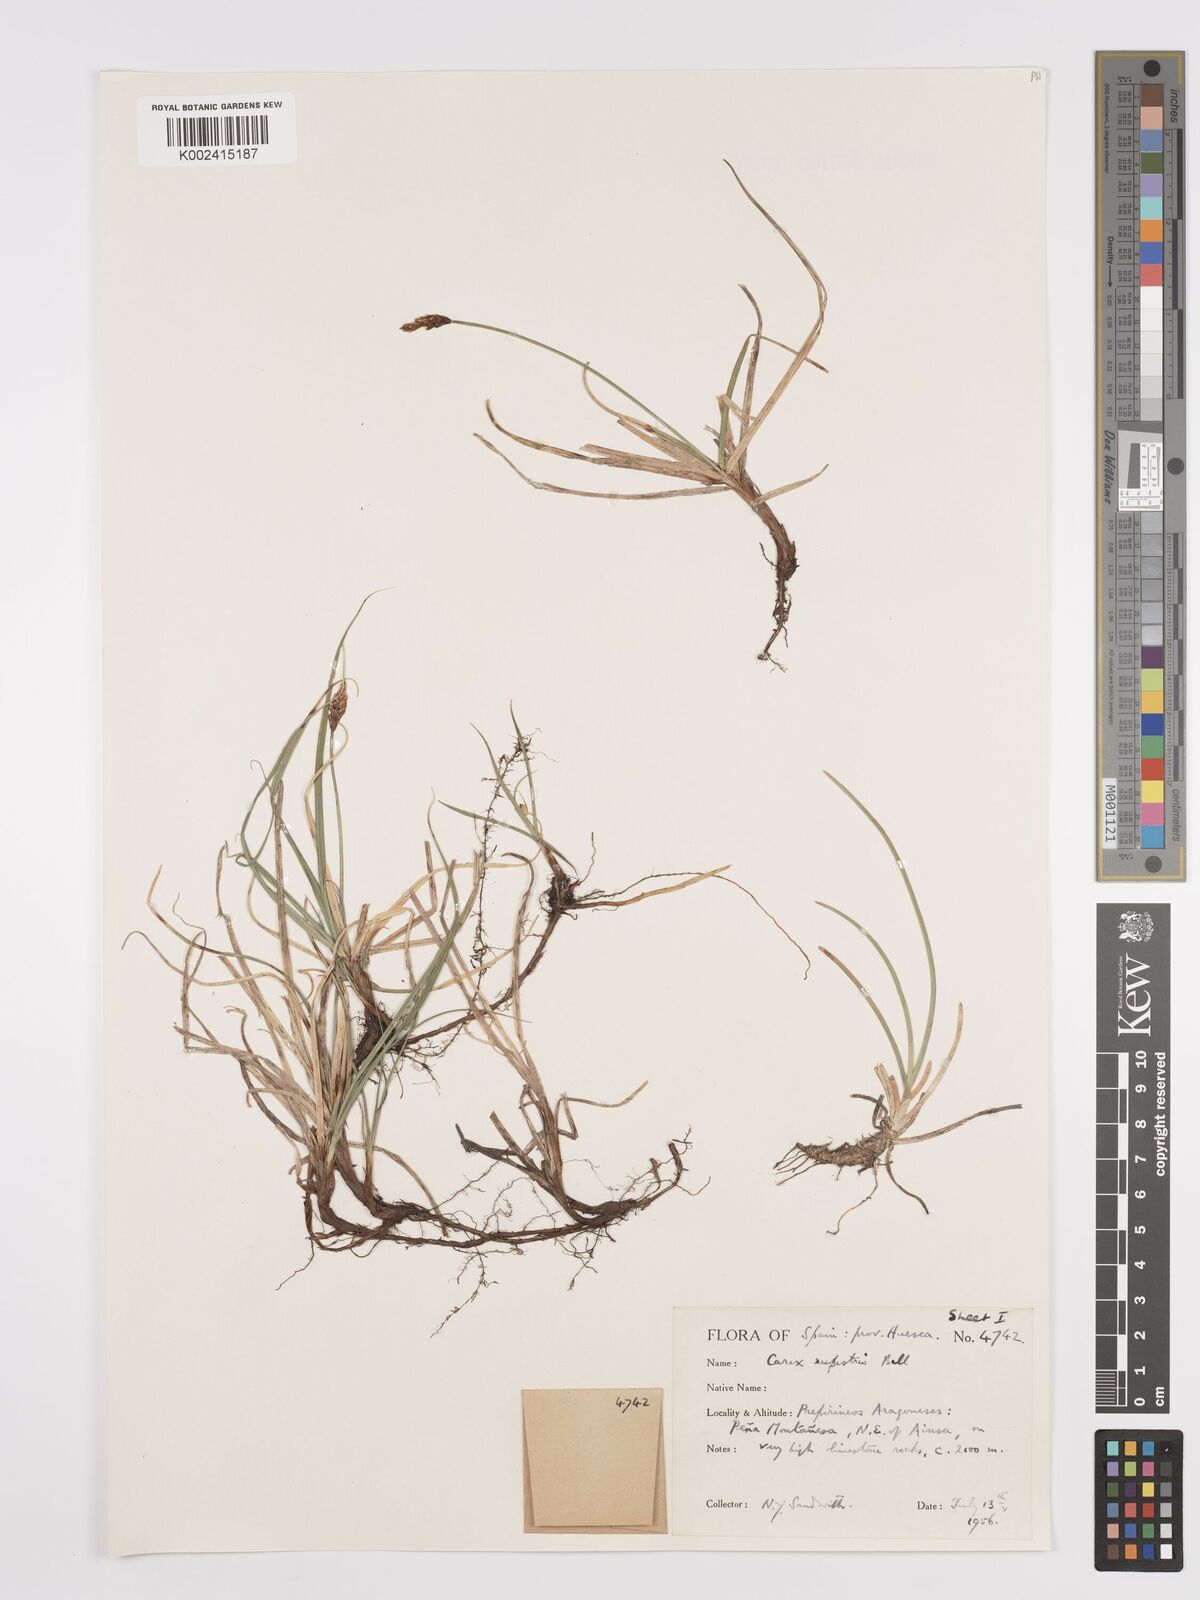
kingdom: Plantae
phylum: Tracheophyta
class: Liliopsida
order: Poales
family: Cyperaceae
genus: Carex
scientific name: Carex rupestris
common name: Rock sedge
